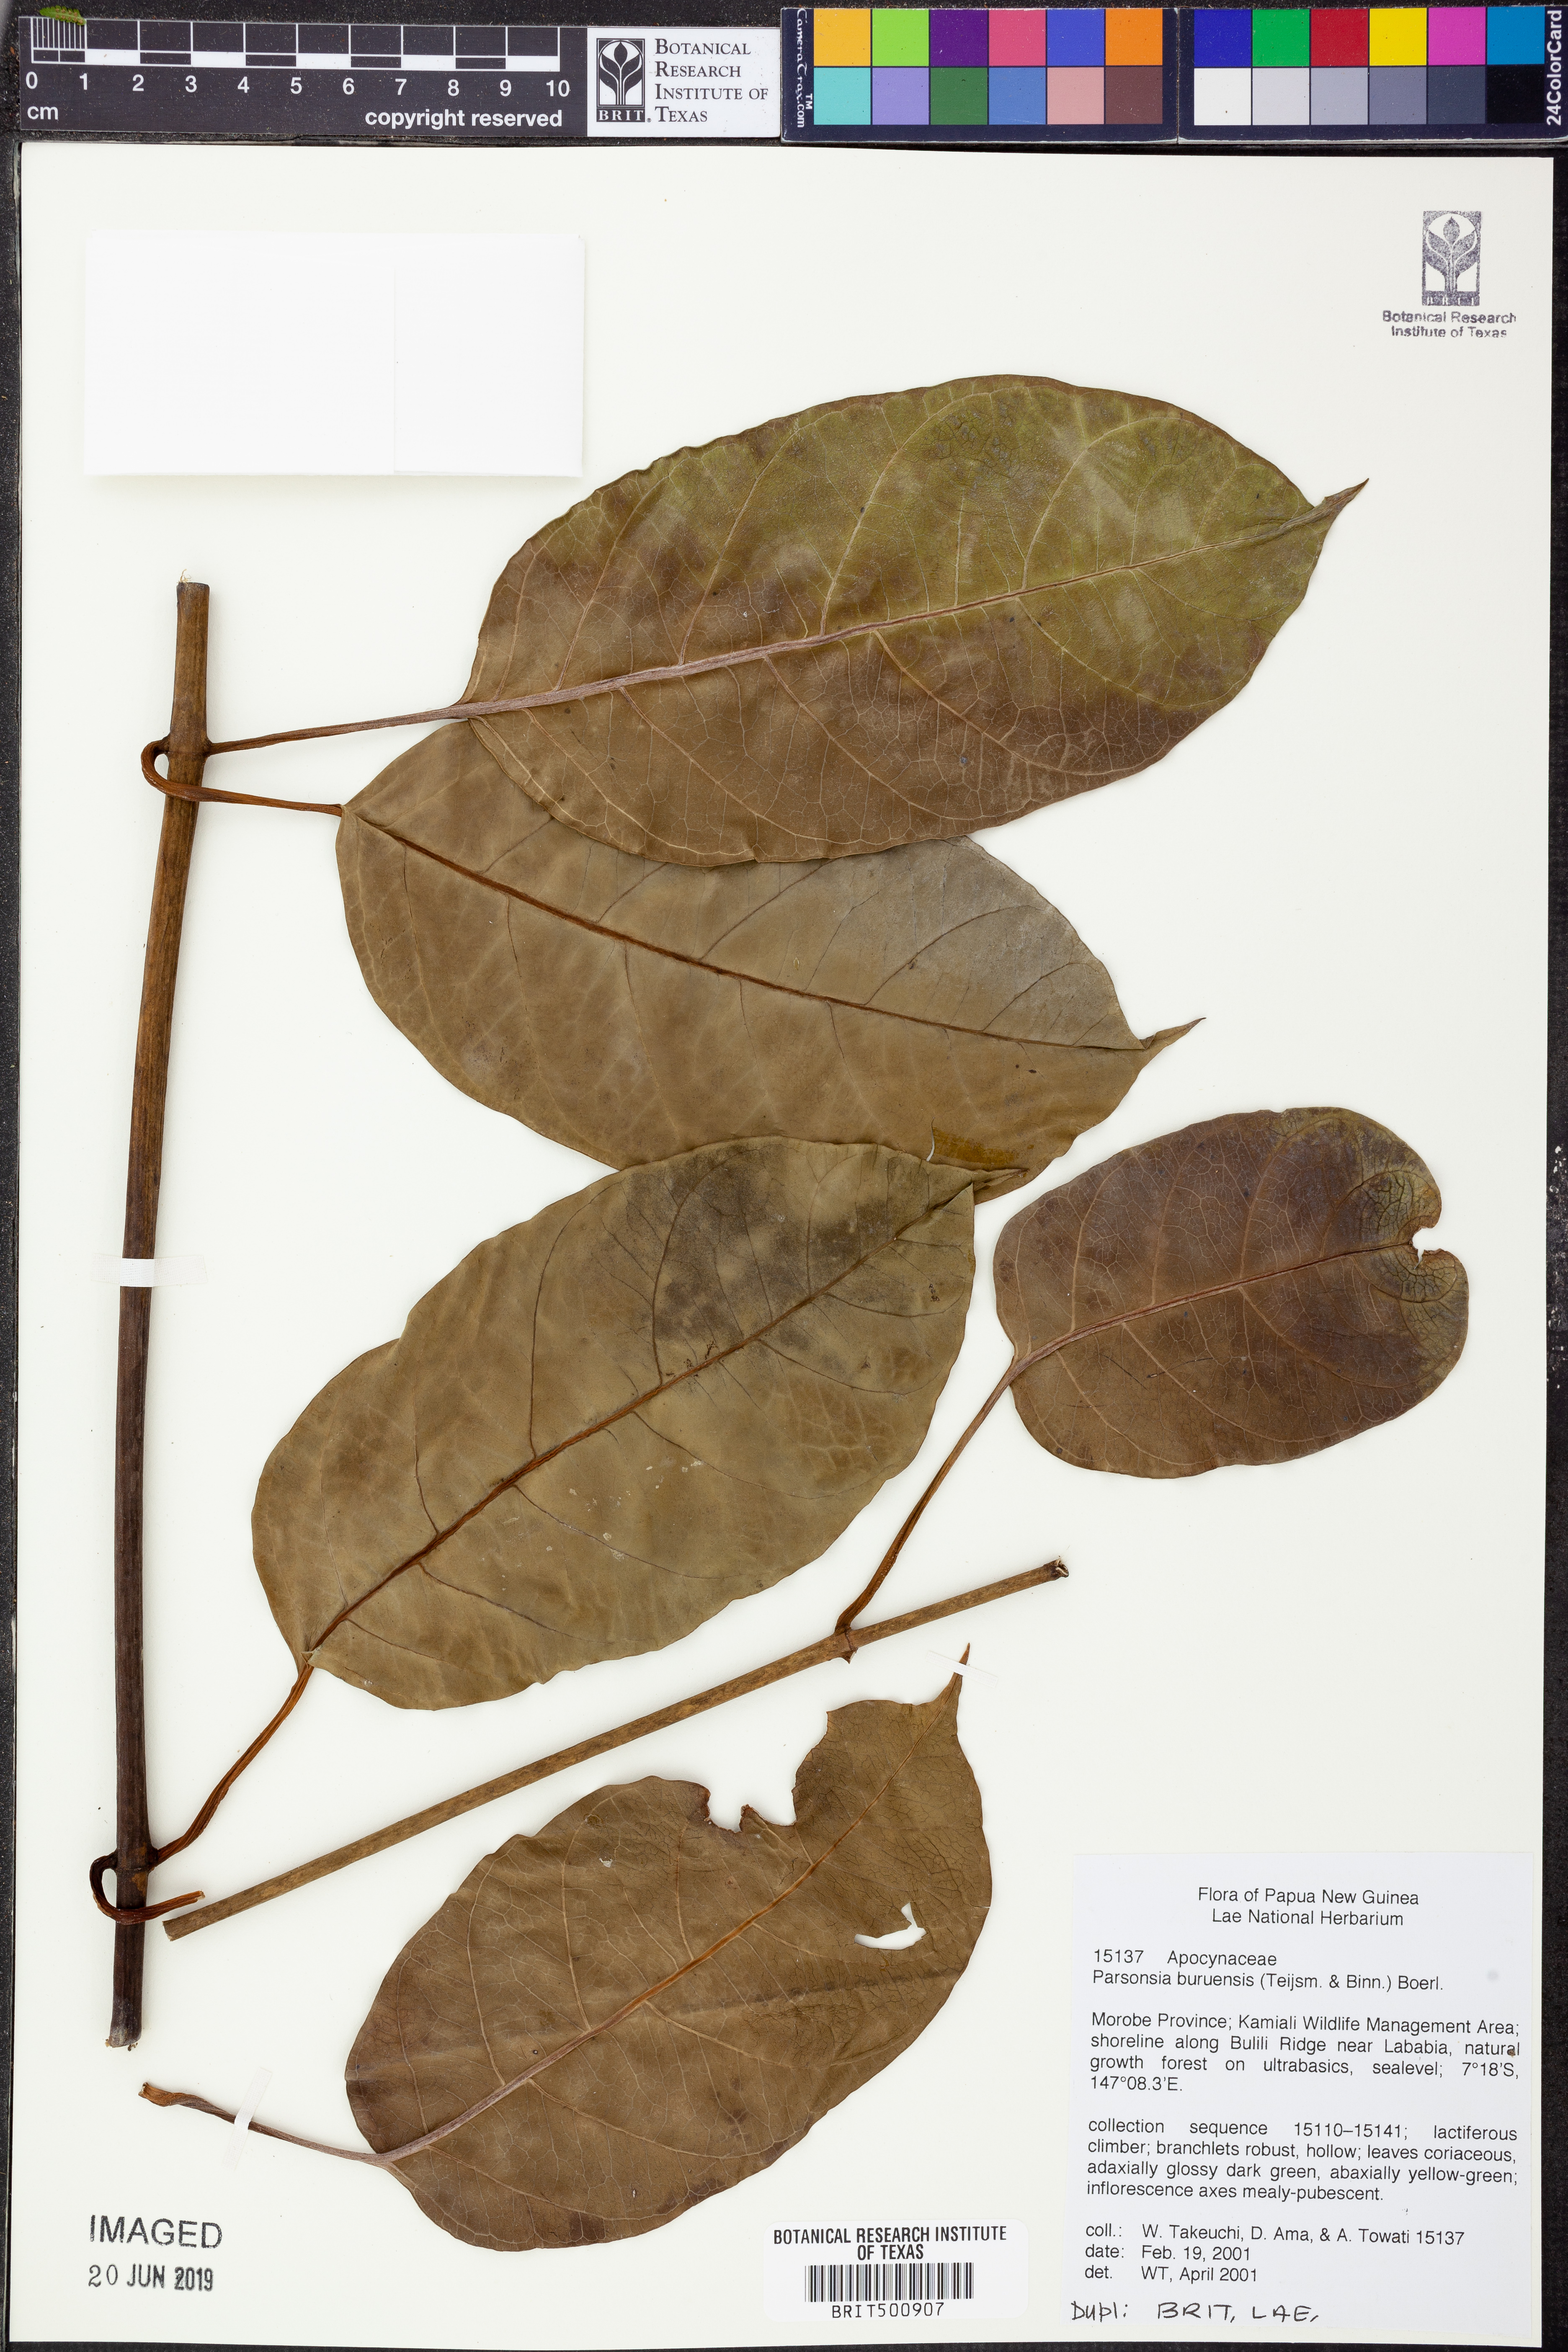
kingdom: Plantae
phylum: Tracheophyta
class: Magnoliopsida
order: Gentianales
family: Apocynaceae
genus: Parsonsia
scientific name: Parsonsia buruensis
